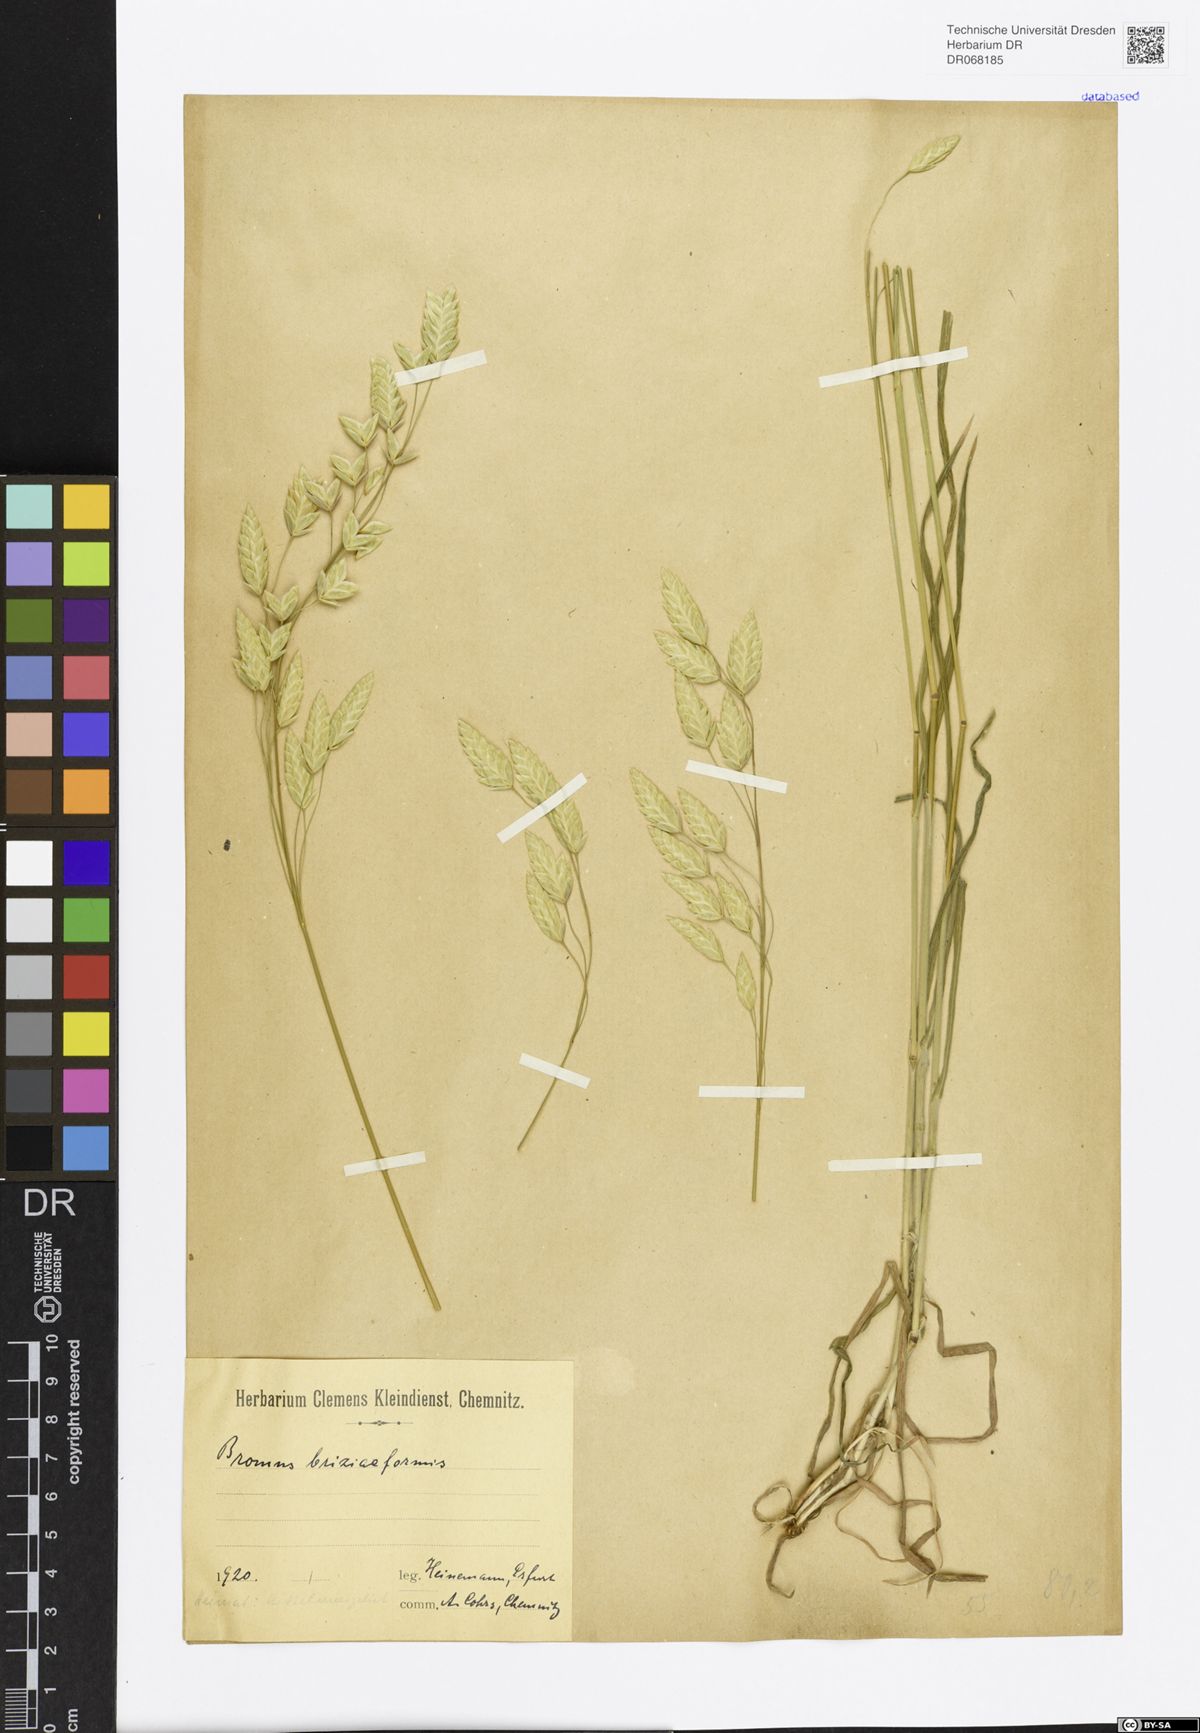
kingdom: Plantae
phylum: Tracheophyta
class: Liliopsida
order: Poales
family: Poaceae
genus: Bromus
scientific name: Bromus briziformis
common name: Rattlesnake brome
